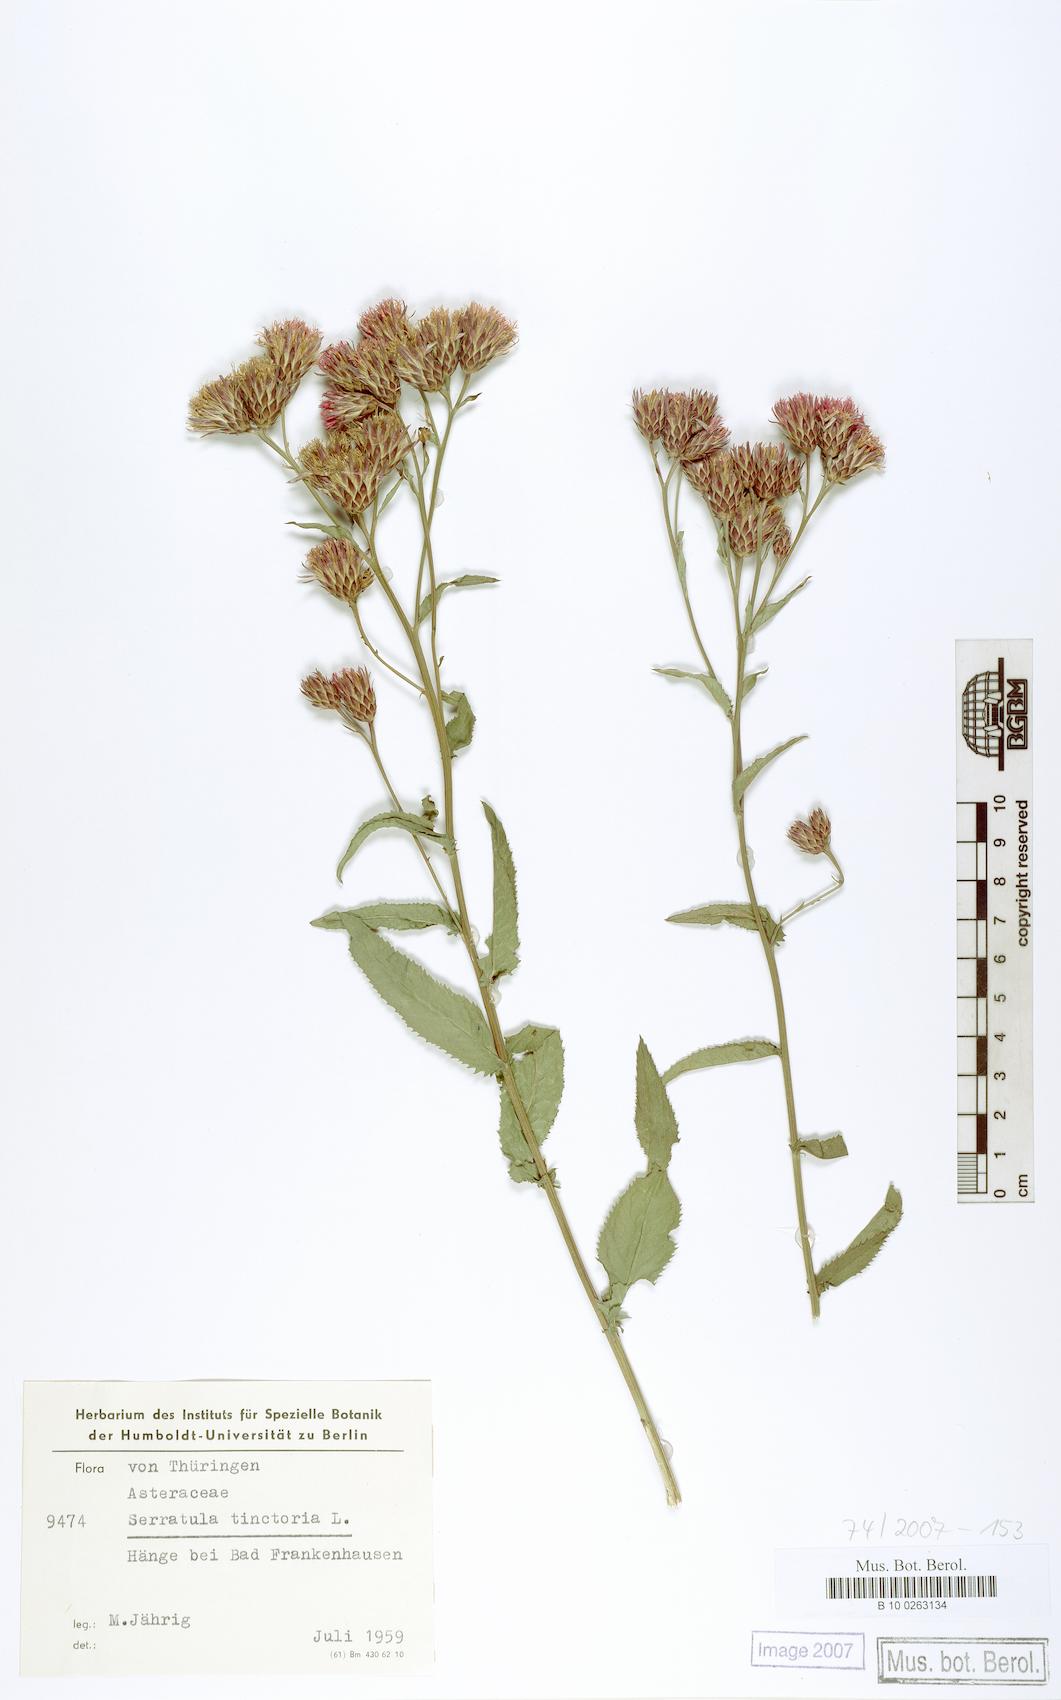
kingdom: Plantae
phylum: Tracheophyta
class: Magnoliopsida
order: Asterales
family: Asteraceae
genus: Serratula
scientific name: Serratula tinctoria
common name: Saw-wort
